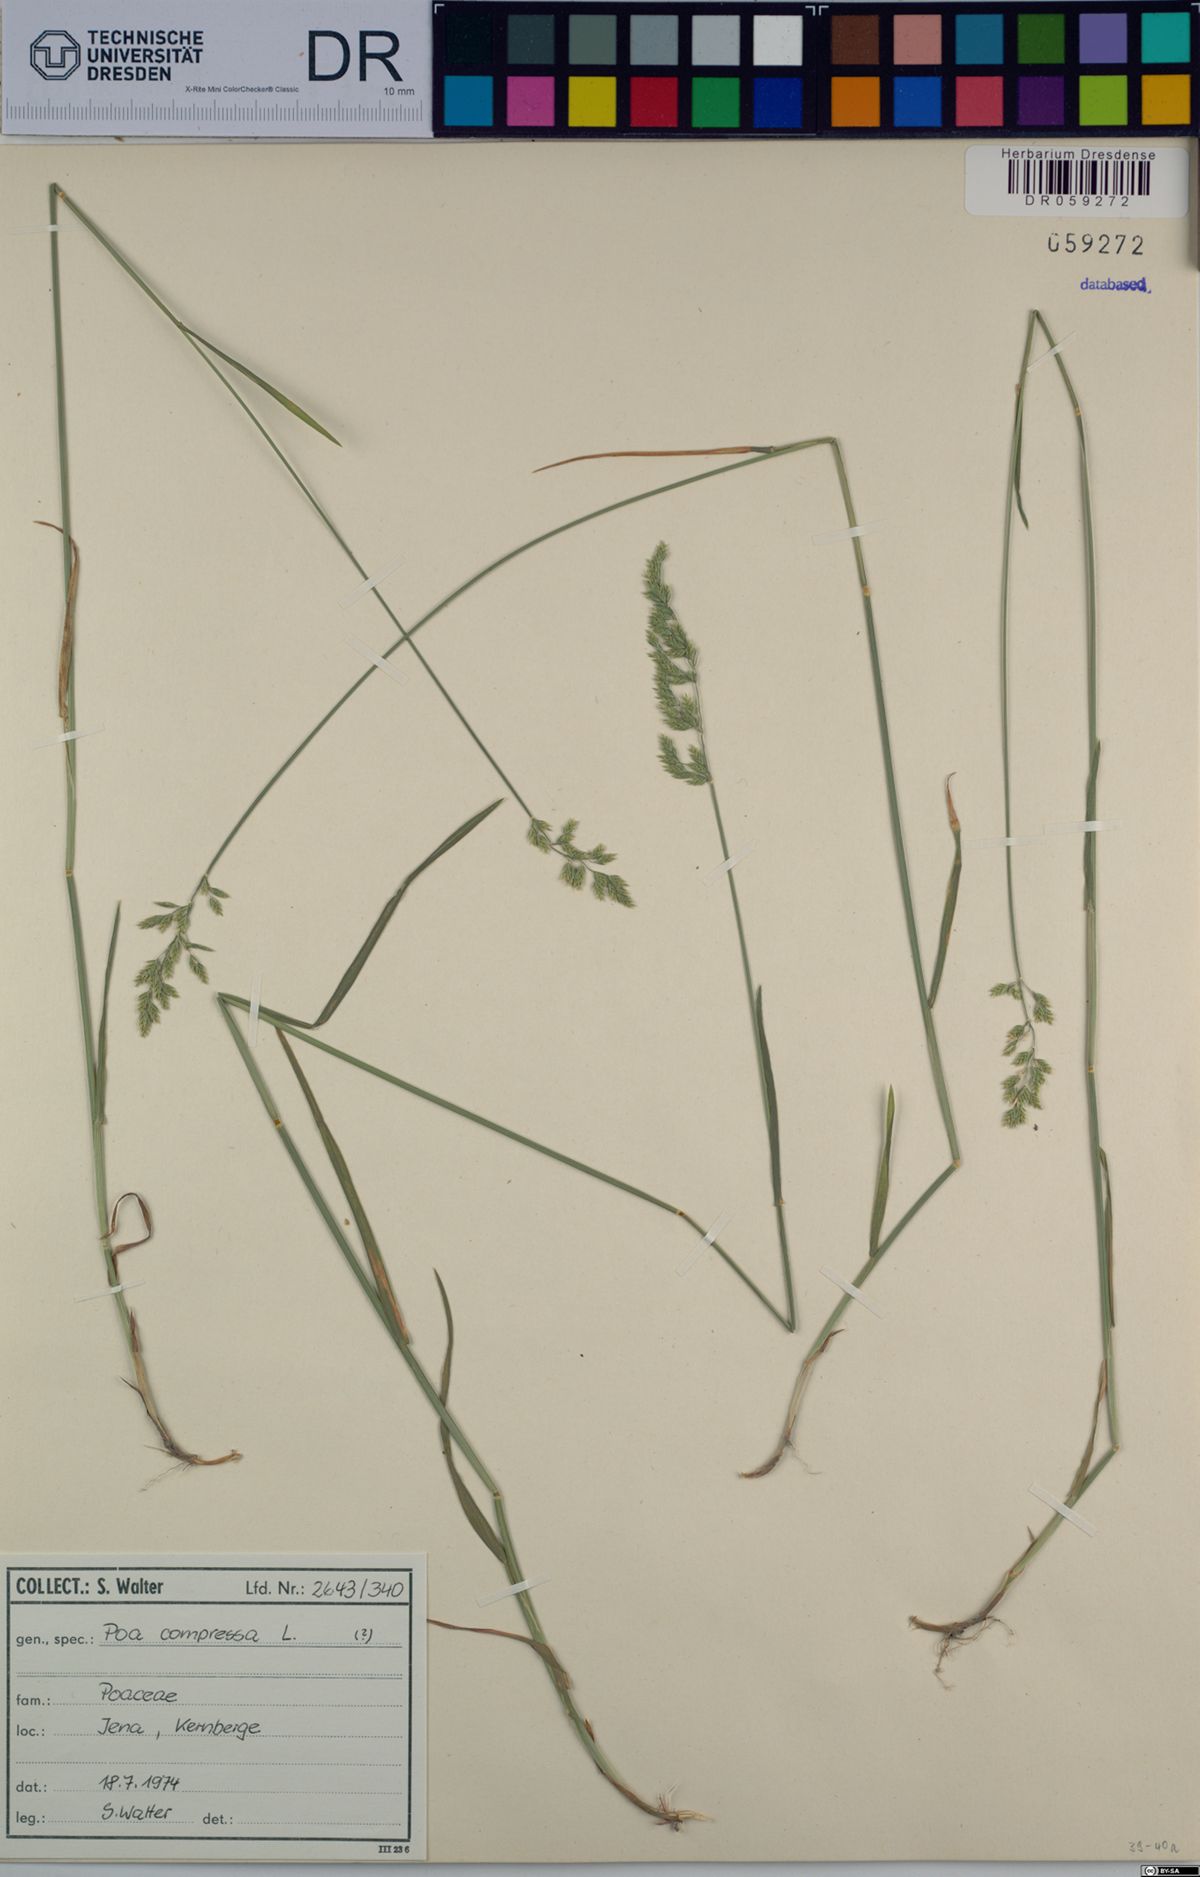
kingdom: Plantae
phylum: Tracheophyta
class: Liliopsida
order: Poales
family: Poaceae
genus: Poa
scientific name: Poa compressa
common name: Canada bluegrass
